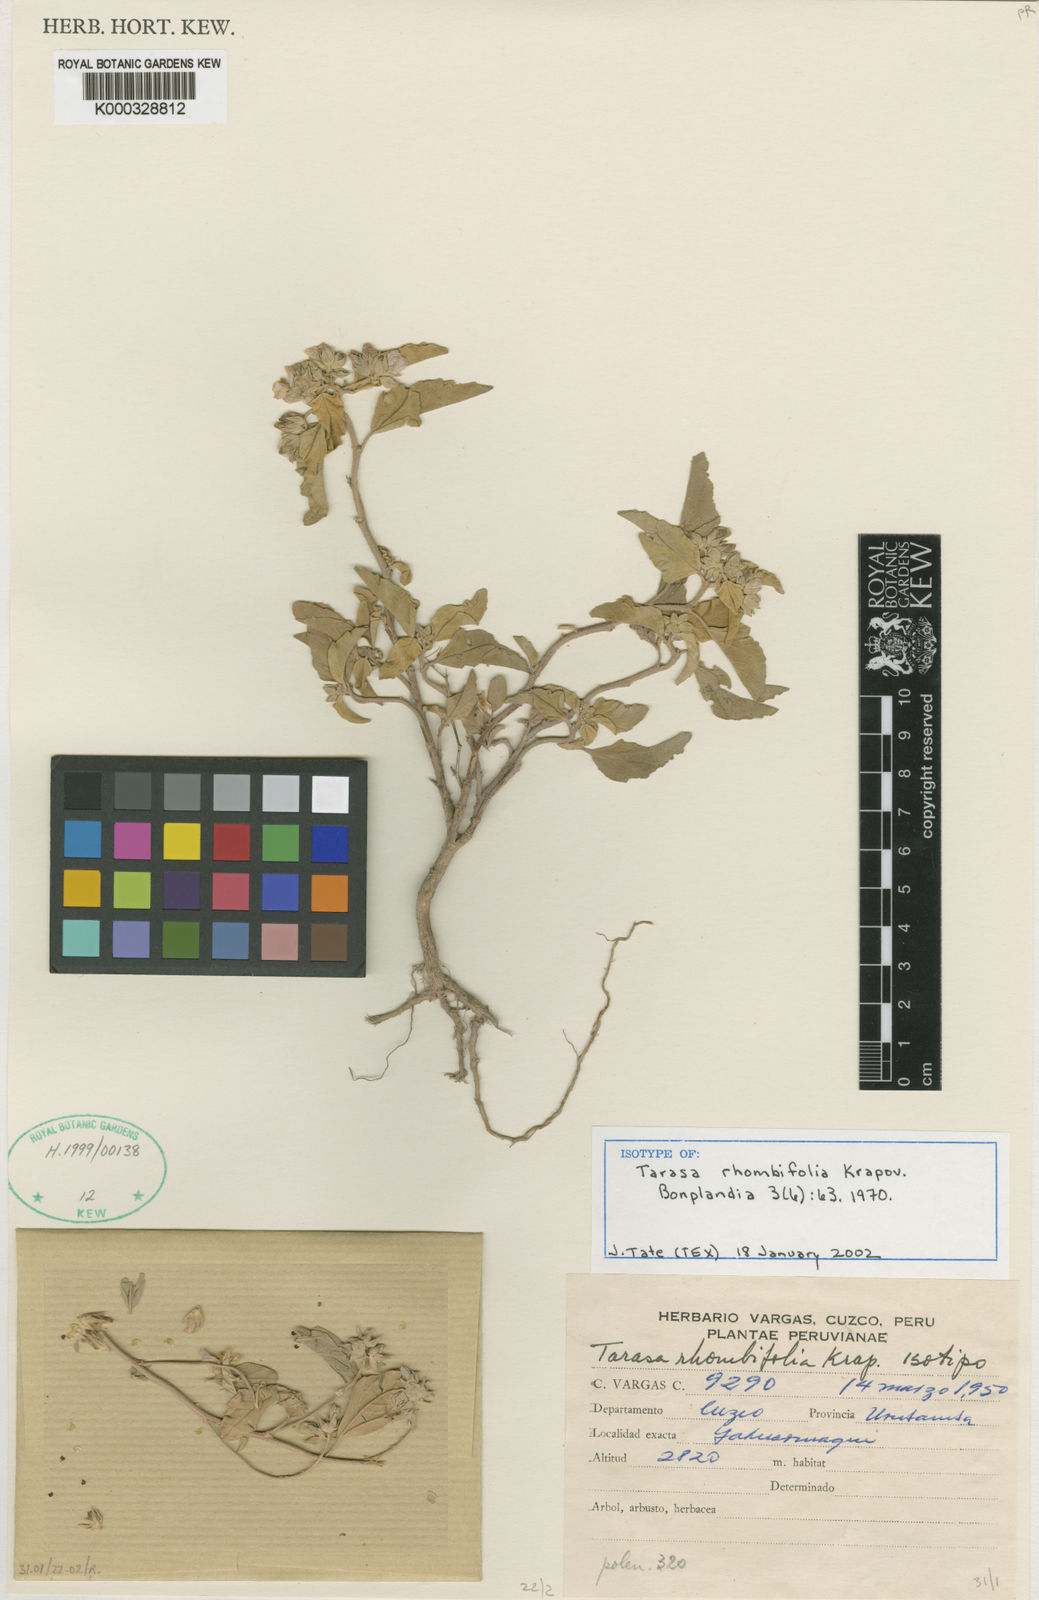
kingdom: Plantae
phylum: Tracheophyta
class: Magnoliopsida
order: Malvales
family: Malvaceae
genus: Tarasa
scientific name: Tarasa rhombifolia
